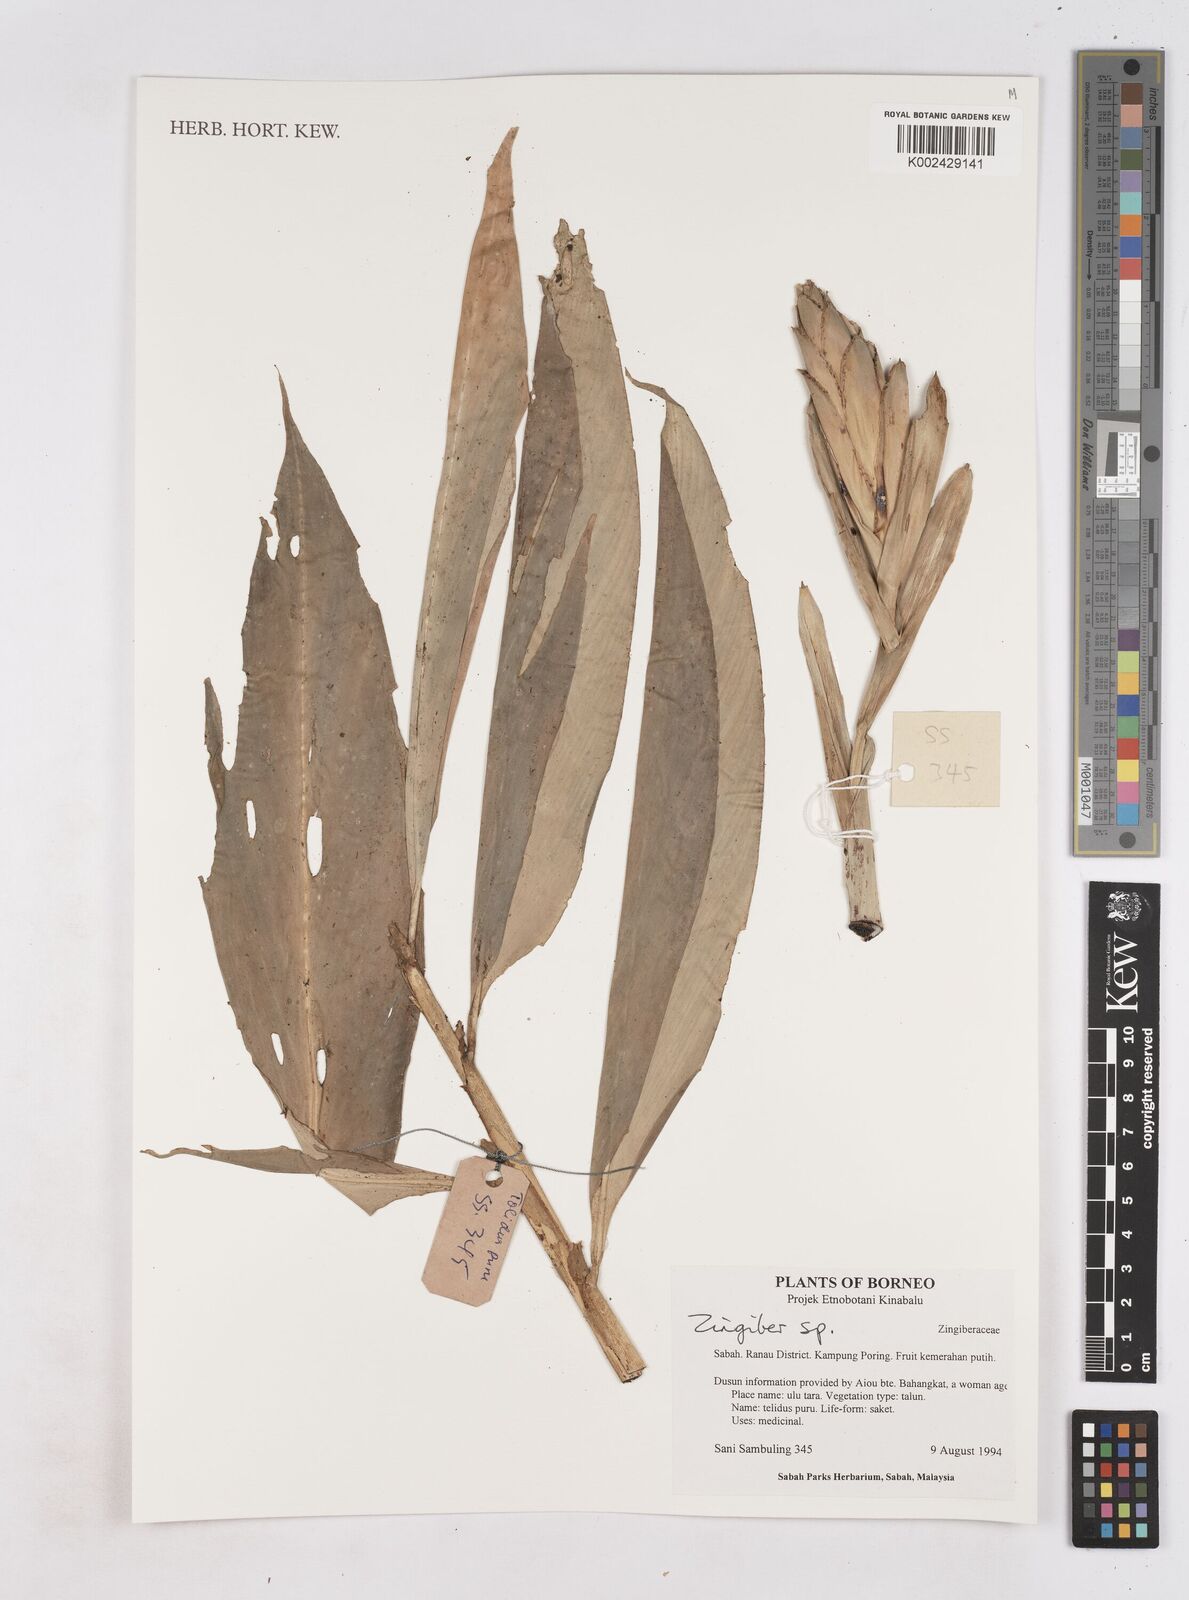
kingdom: Plantae
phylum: Tracheophyta
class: Liliopsida
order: Zingiberales
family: Zingiberaceae
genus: Zingiber
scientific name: Zingiber
